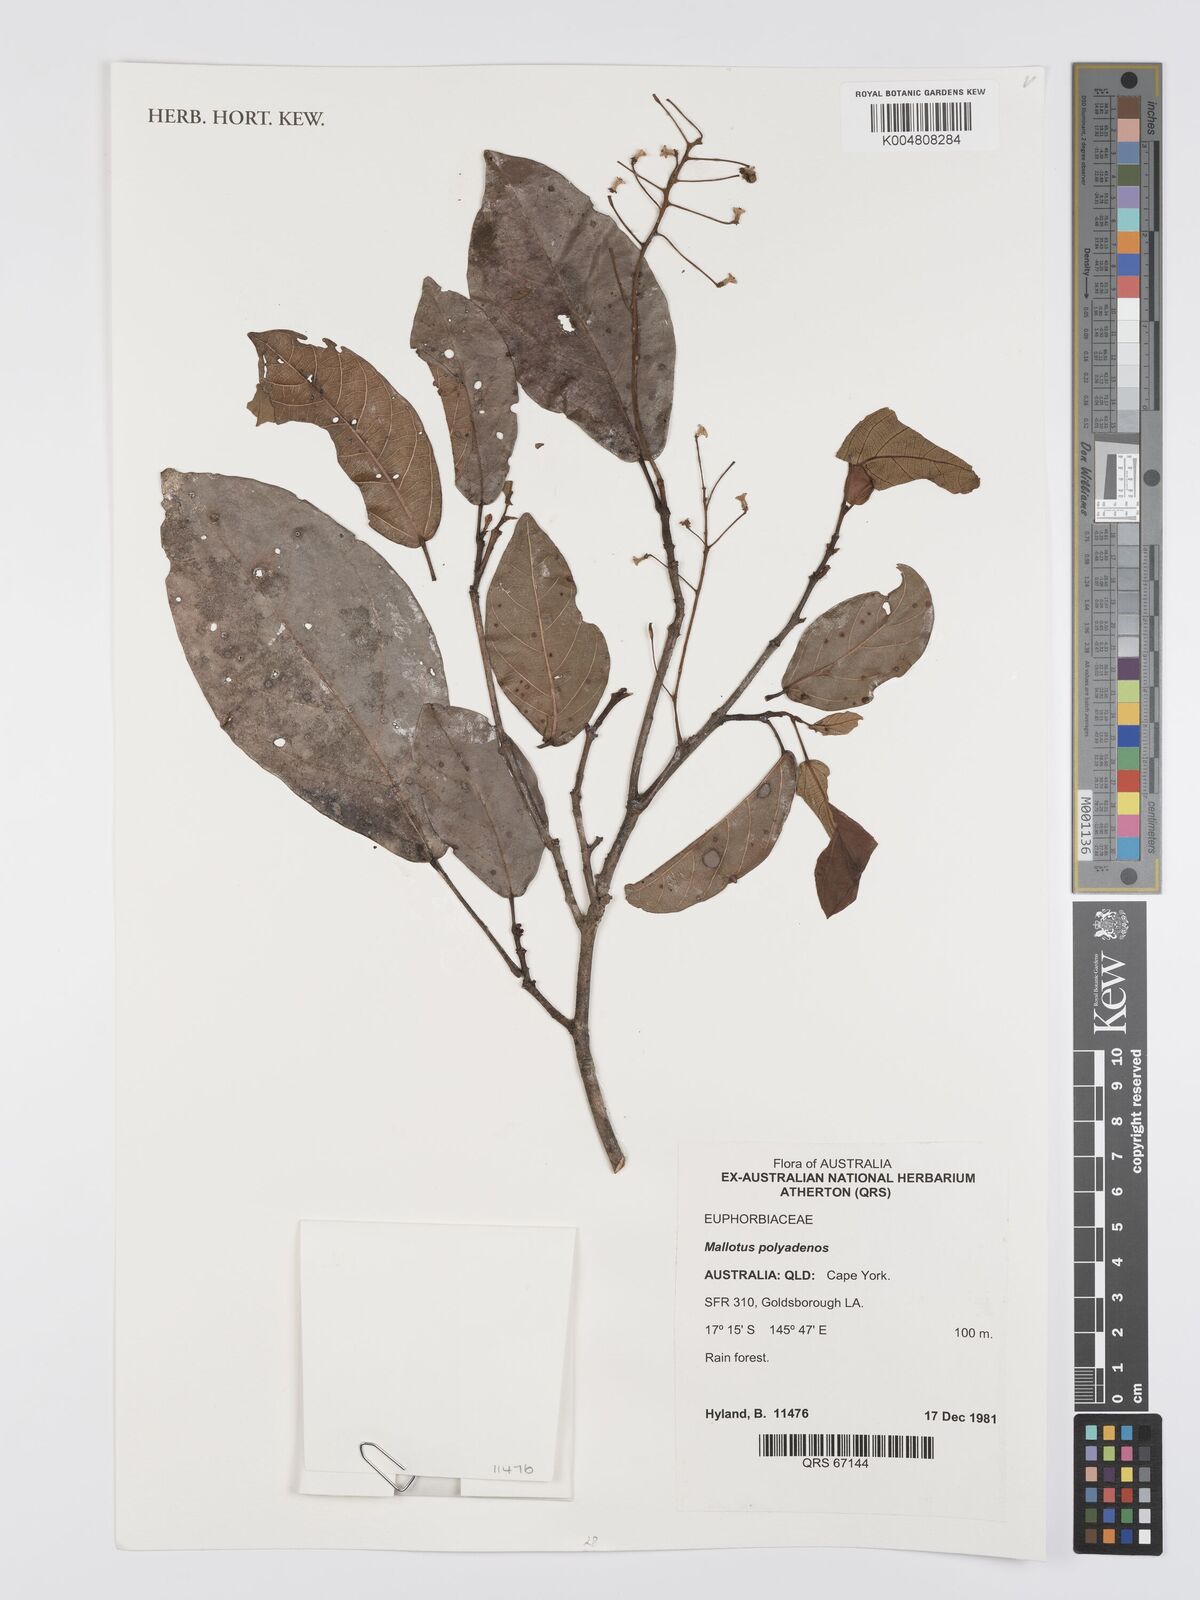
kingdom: Plantae
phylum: Tracheophyta
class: Magnoliopsida
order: Malpighiales
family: Euphorbiaceae
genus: Mallotus
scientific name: Mallotus polyadenos
